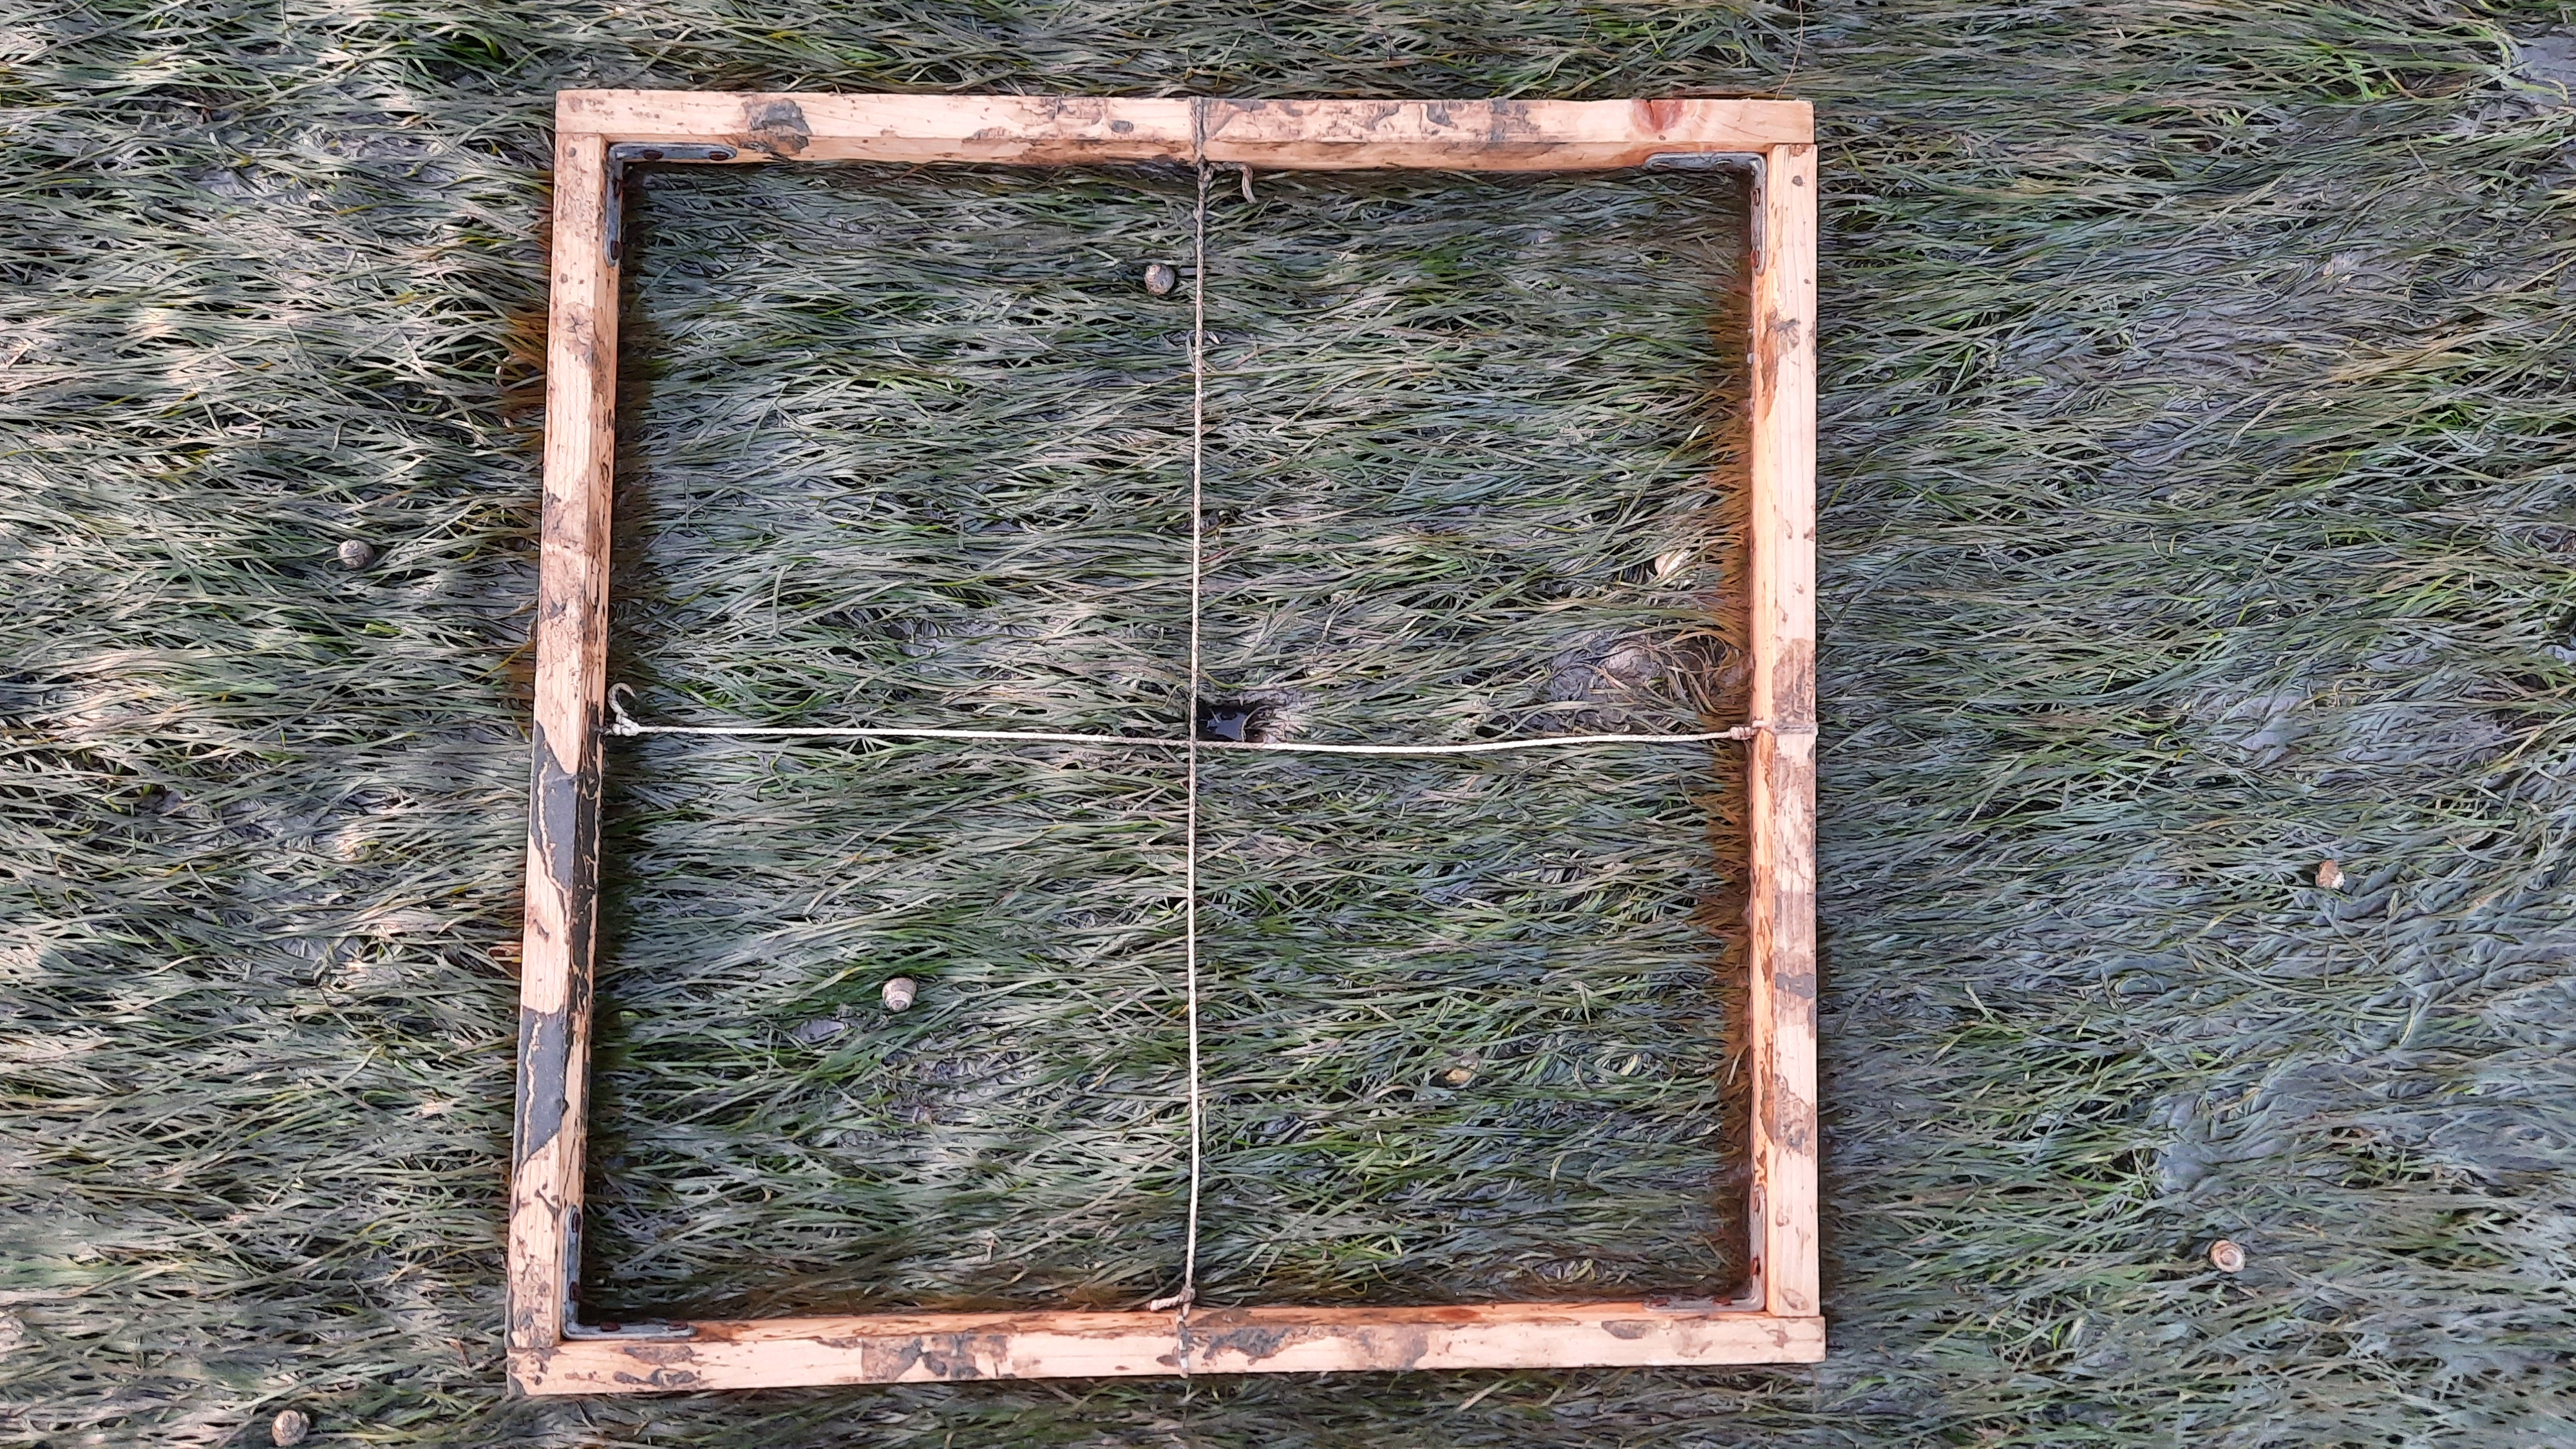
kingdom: Plantae
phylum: Tracheophyta
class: Liliopsida
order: Alismatales
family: Zosteraceae
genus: Zostera
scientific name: Zostera noltii
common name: Dwarf eelgrass
